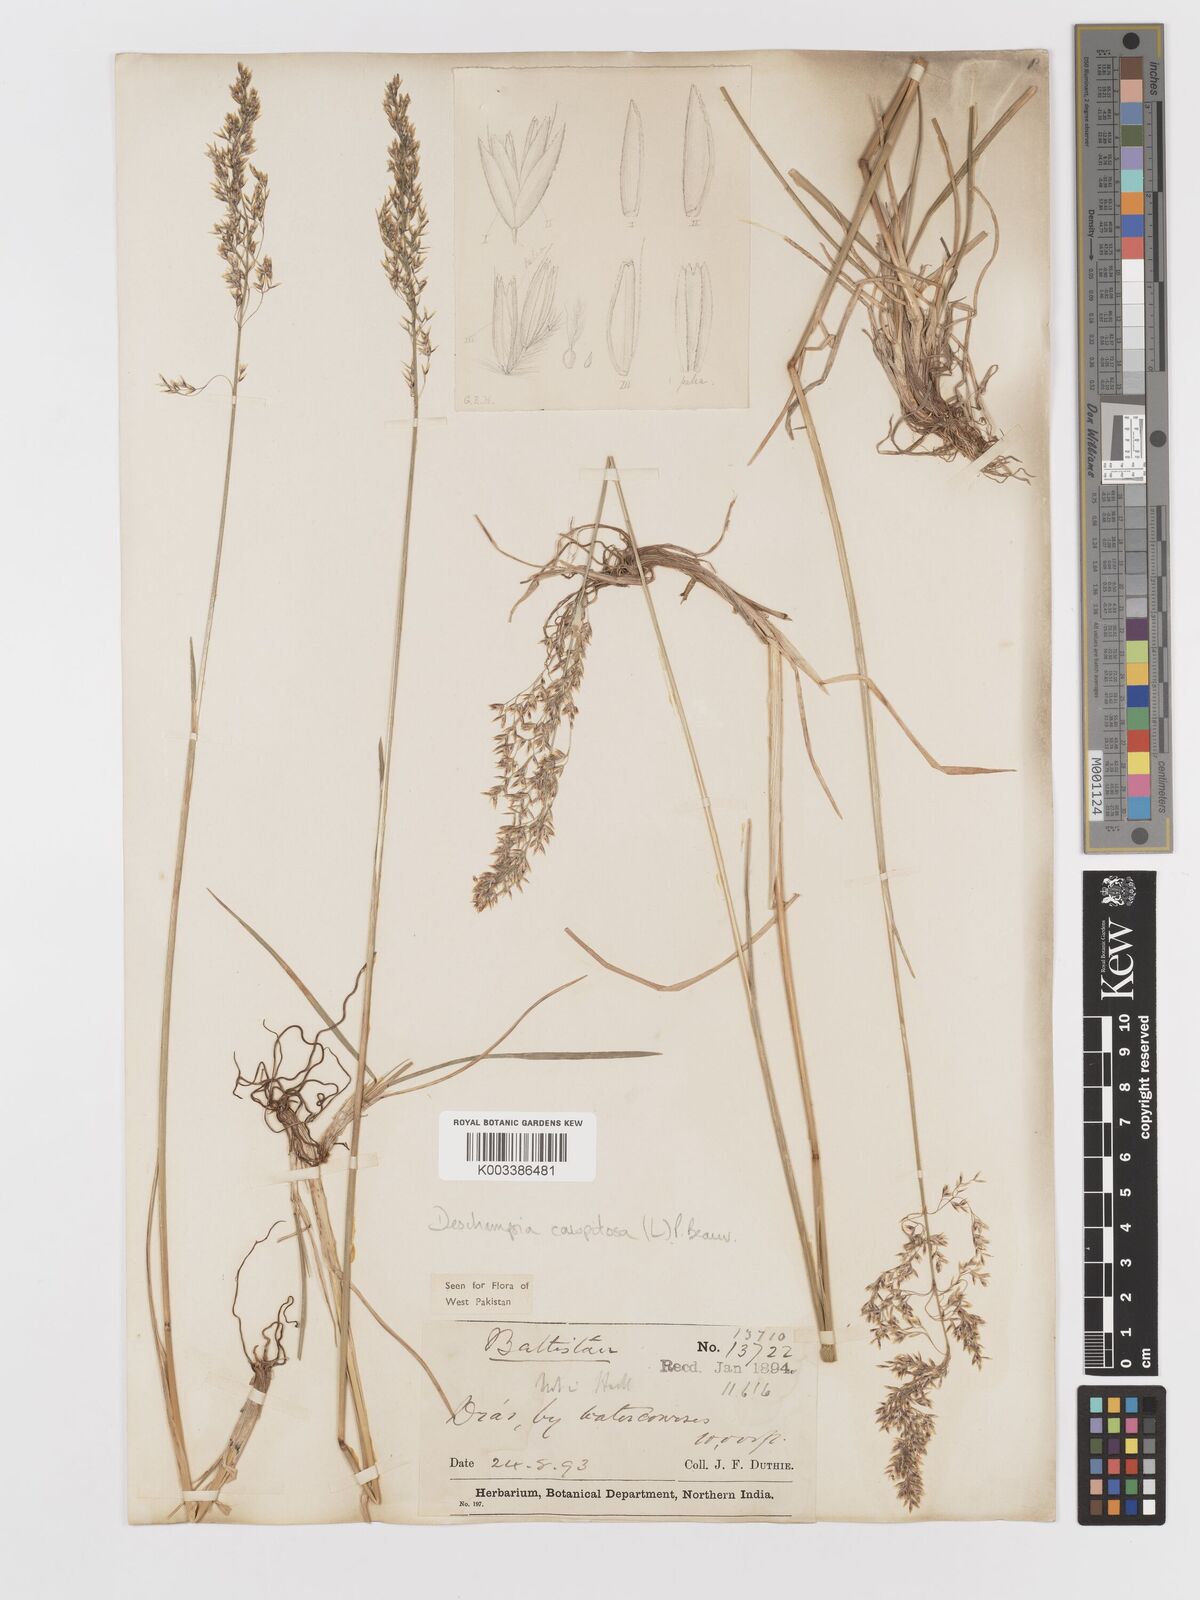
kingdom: Plantae
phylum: Tracheophyta
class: Liliopsida
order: Poales
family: Poaceae
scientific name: Poaceae
